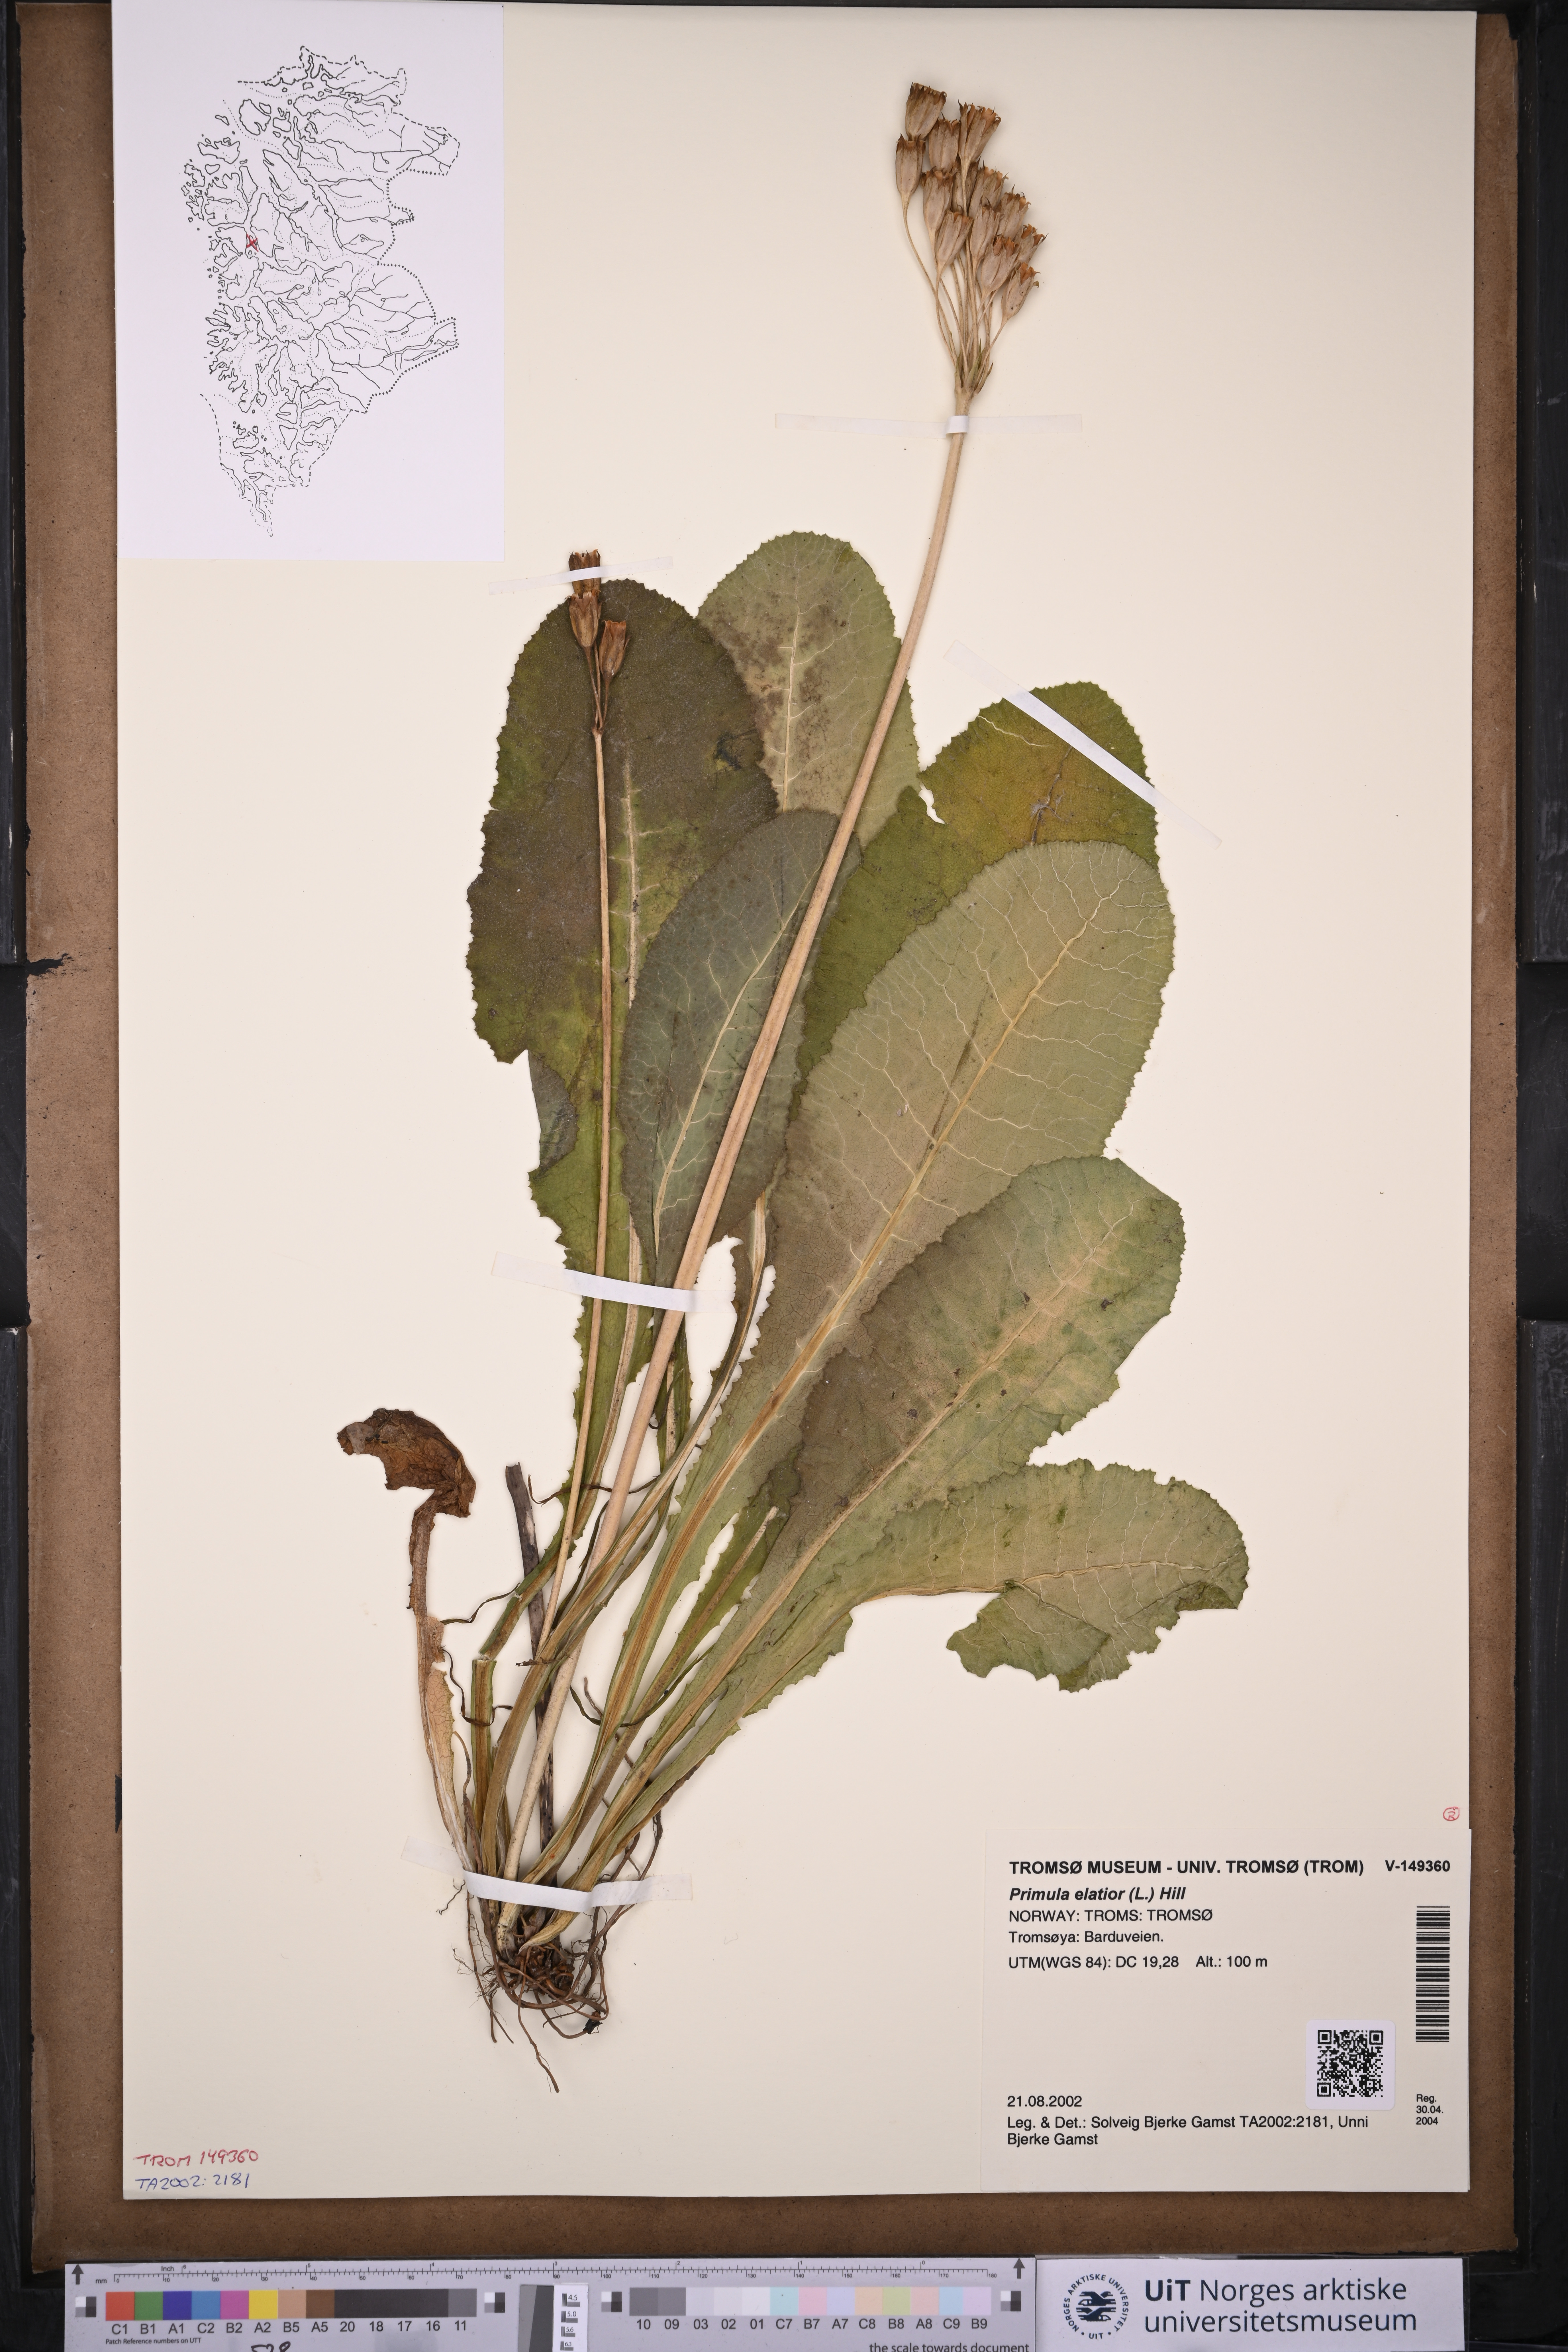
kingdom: Plantae
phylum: Tracheophyta
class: Magnoliopsida
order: Ericales
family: Primulaceae
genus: Primula
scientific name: Primula elatior
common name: Oxlip
